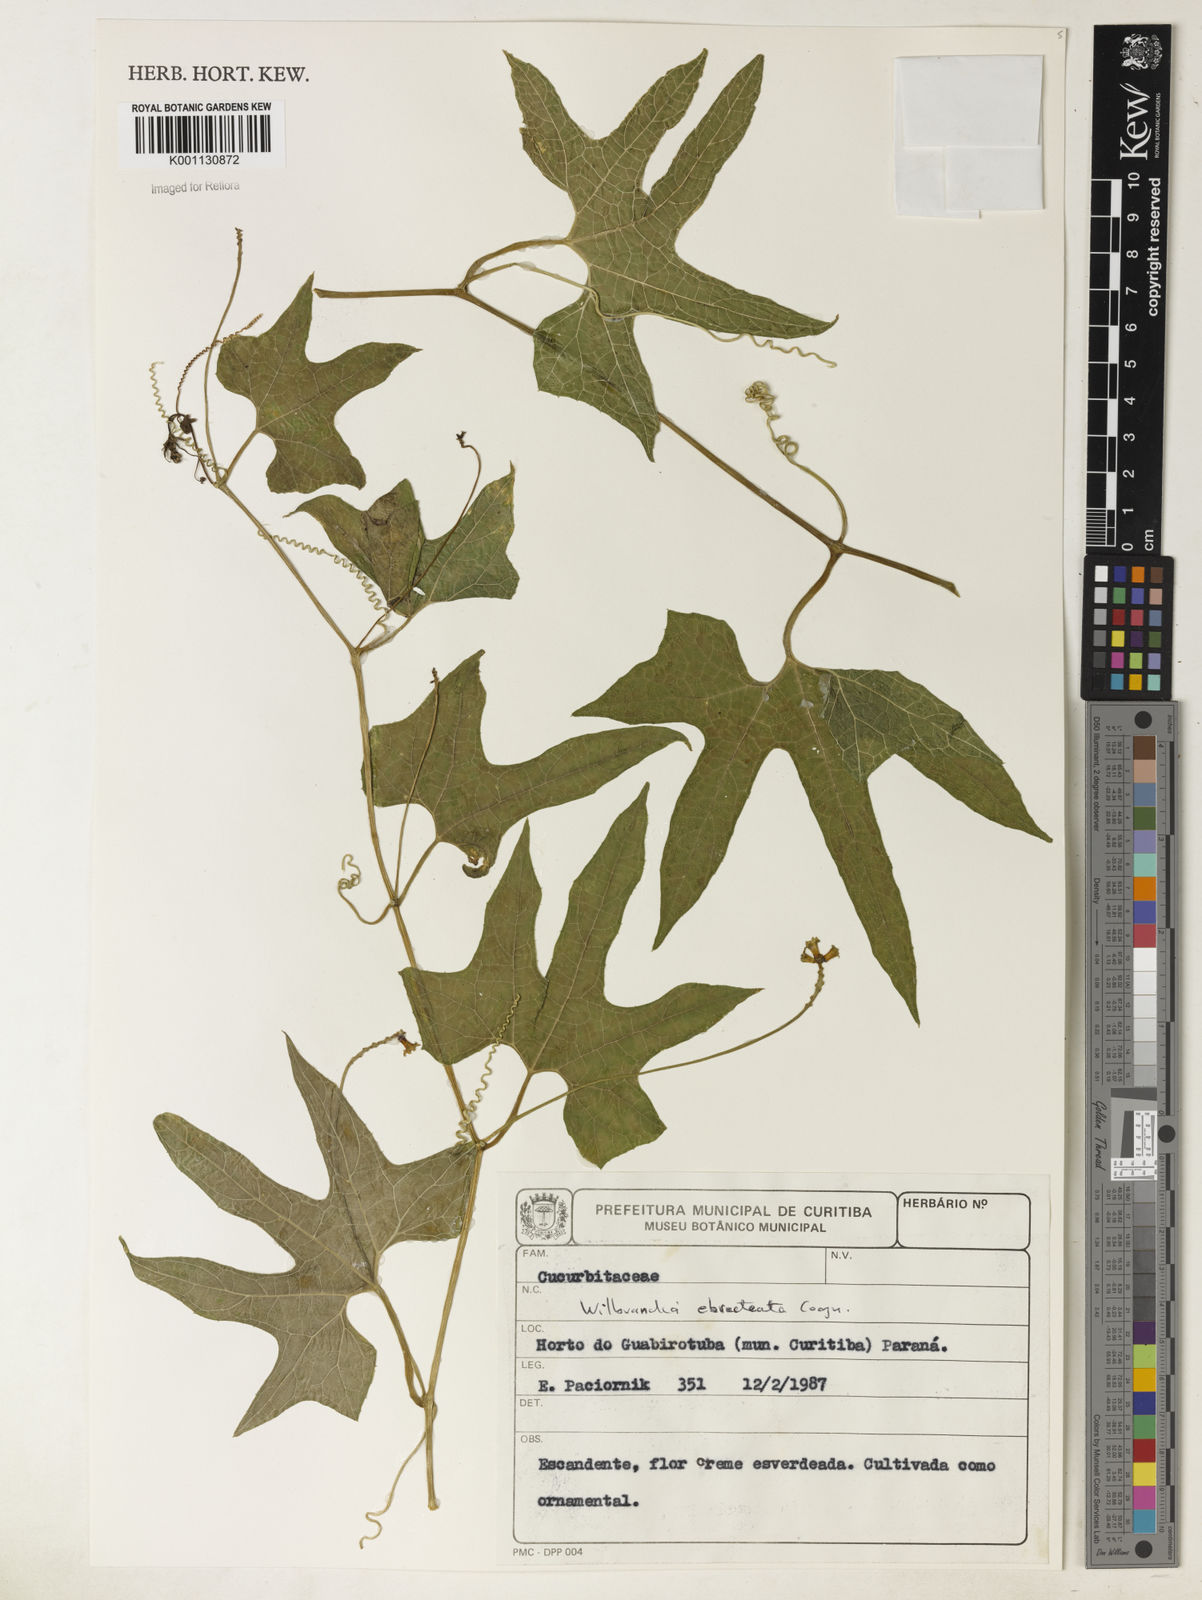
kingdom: Plantae
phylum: Tracheophyta
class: Magnoliopsida
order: Cucurbitales
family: Cucurbitaceae
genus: Wilbrandia
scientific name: Wilbrandia ebracteata
